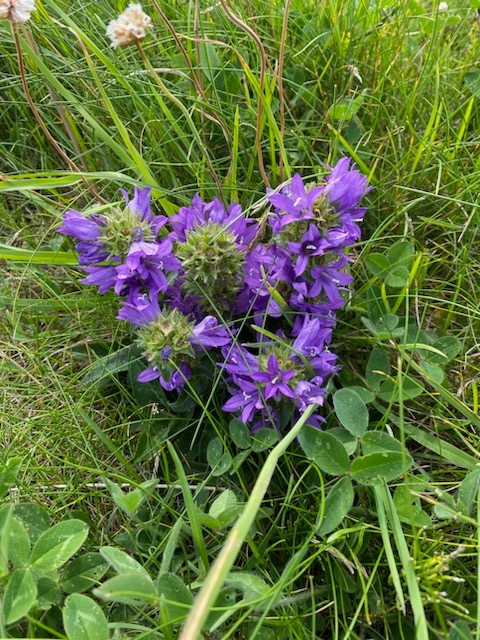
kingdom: Plantae
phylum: Tracheophyta
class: Magnoliopsida
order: Asterales
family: Campanulaceae
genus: Campanula
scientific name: Campanula glomerata
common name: Nøgleblomstret klokke
